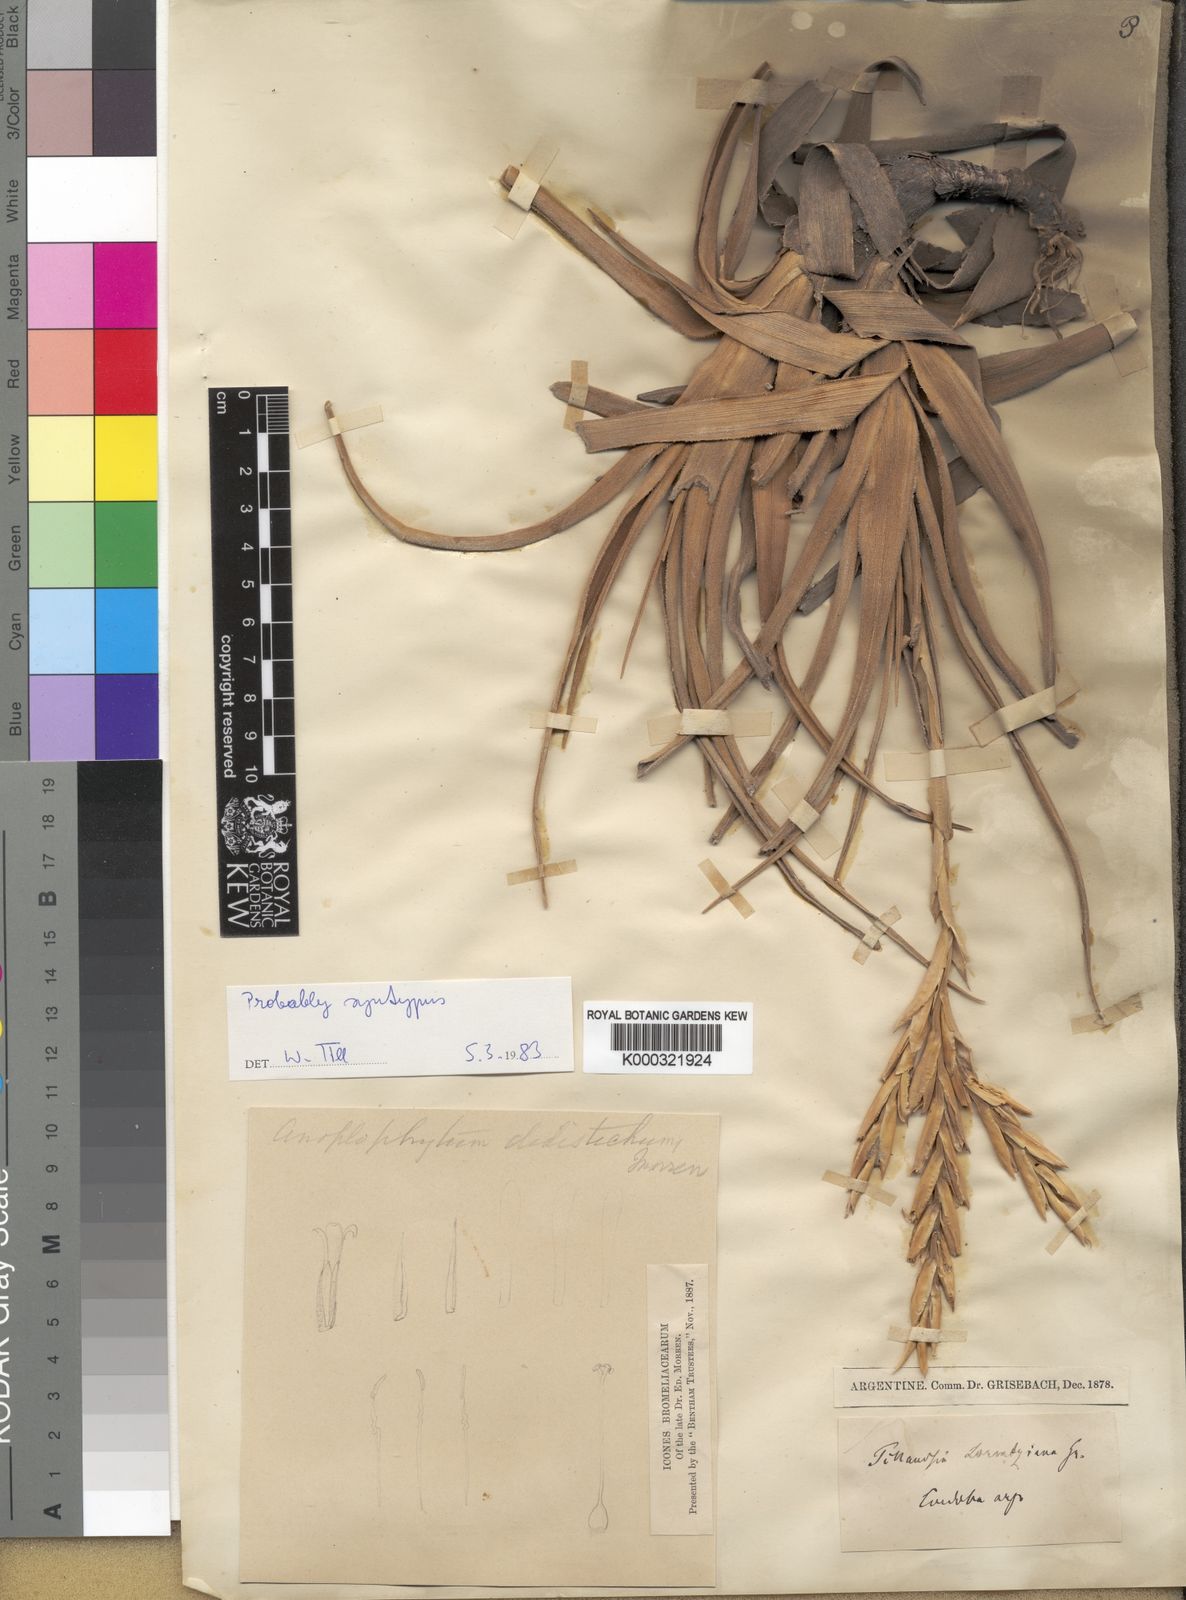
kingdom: Plantae
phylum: Tracheophyta
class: Liliopsida
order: Poales
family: Bromeliaceae
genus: Tillandsia
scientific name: Tillandsia lorentziana
